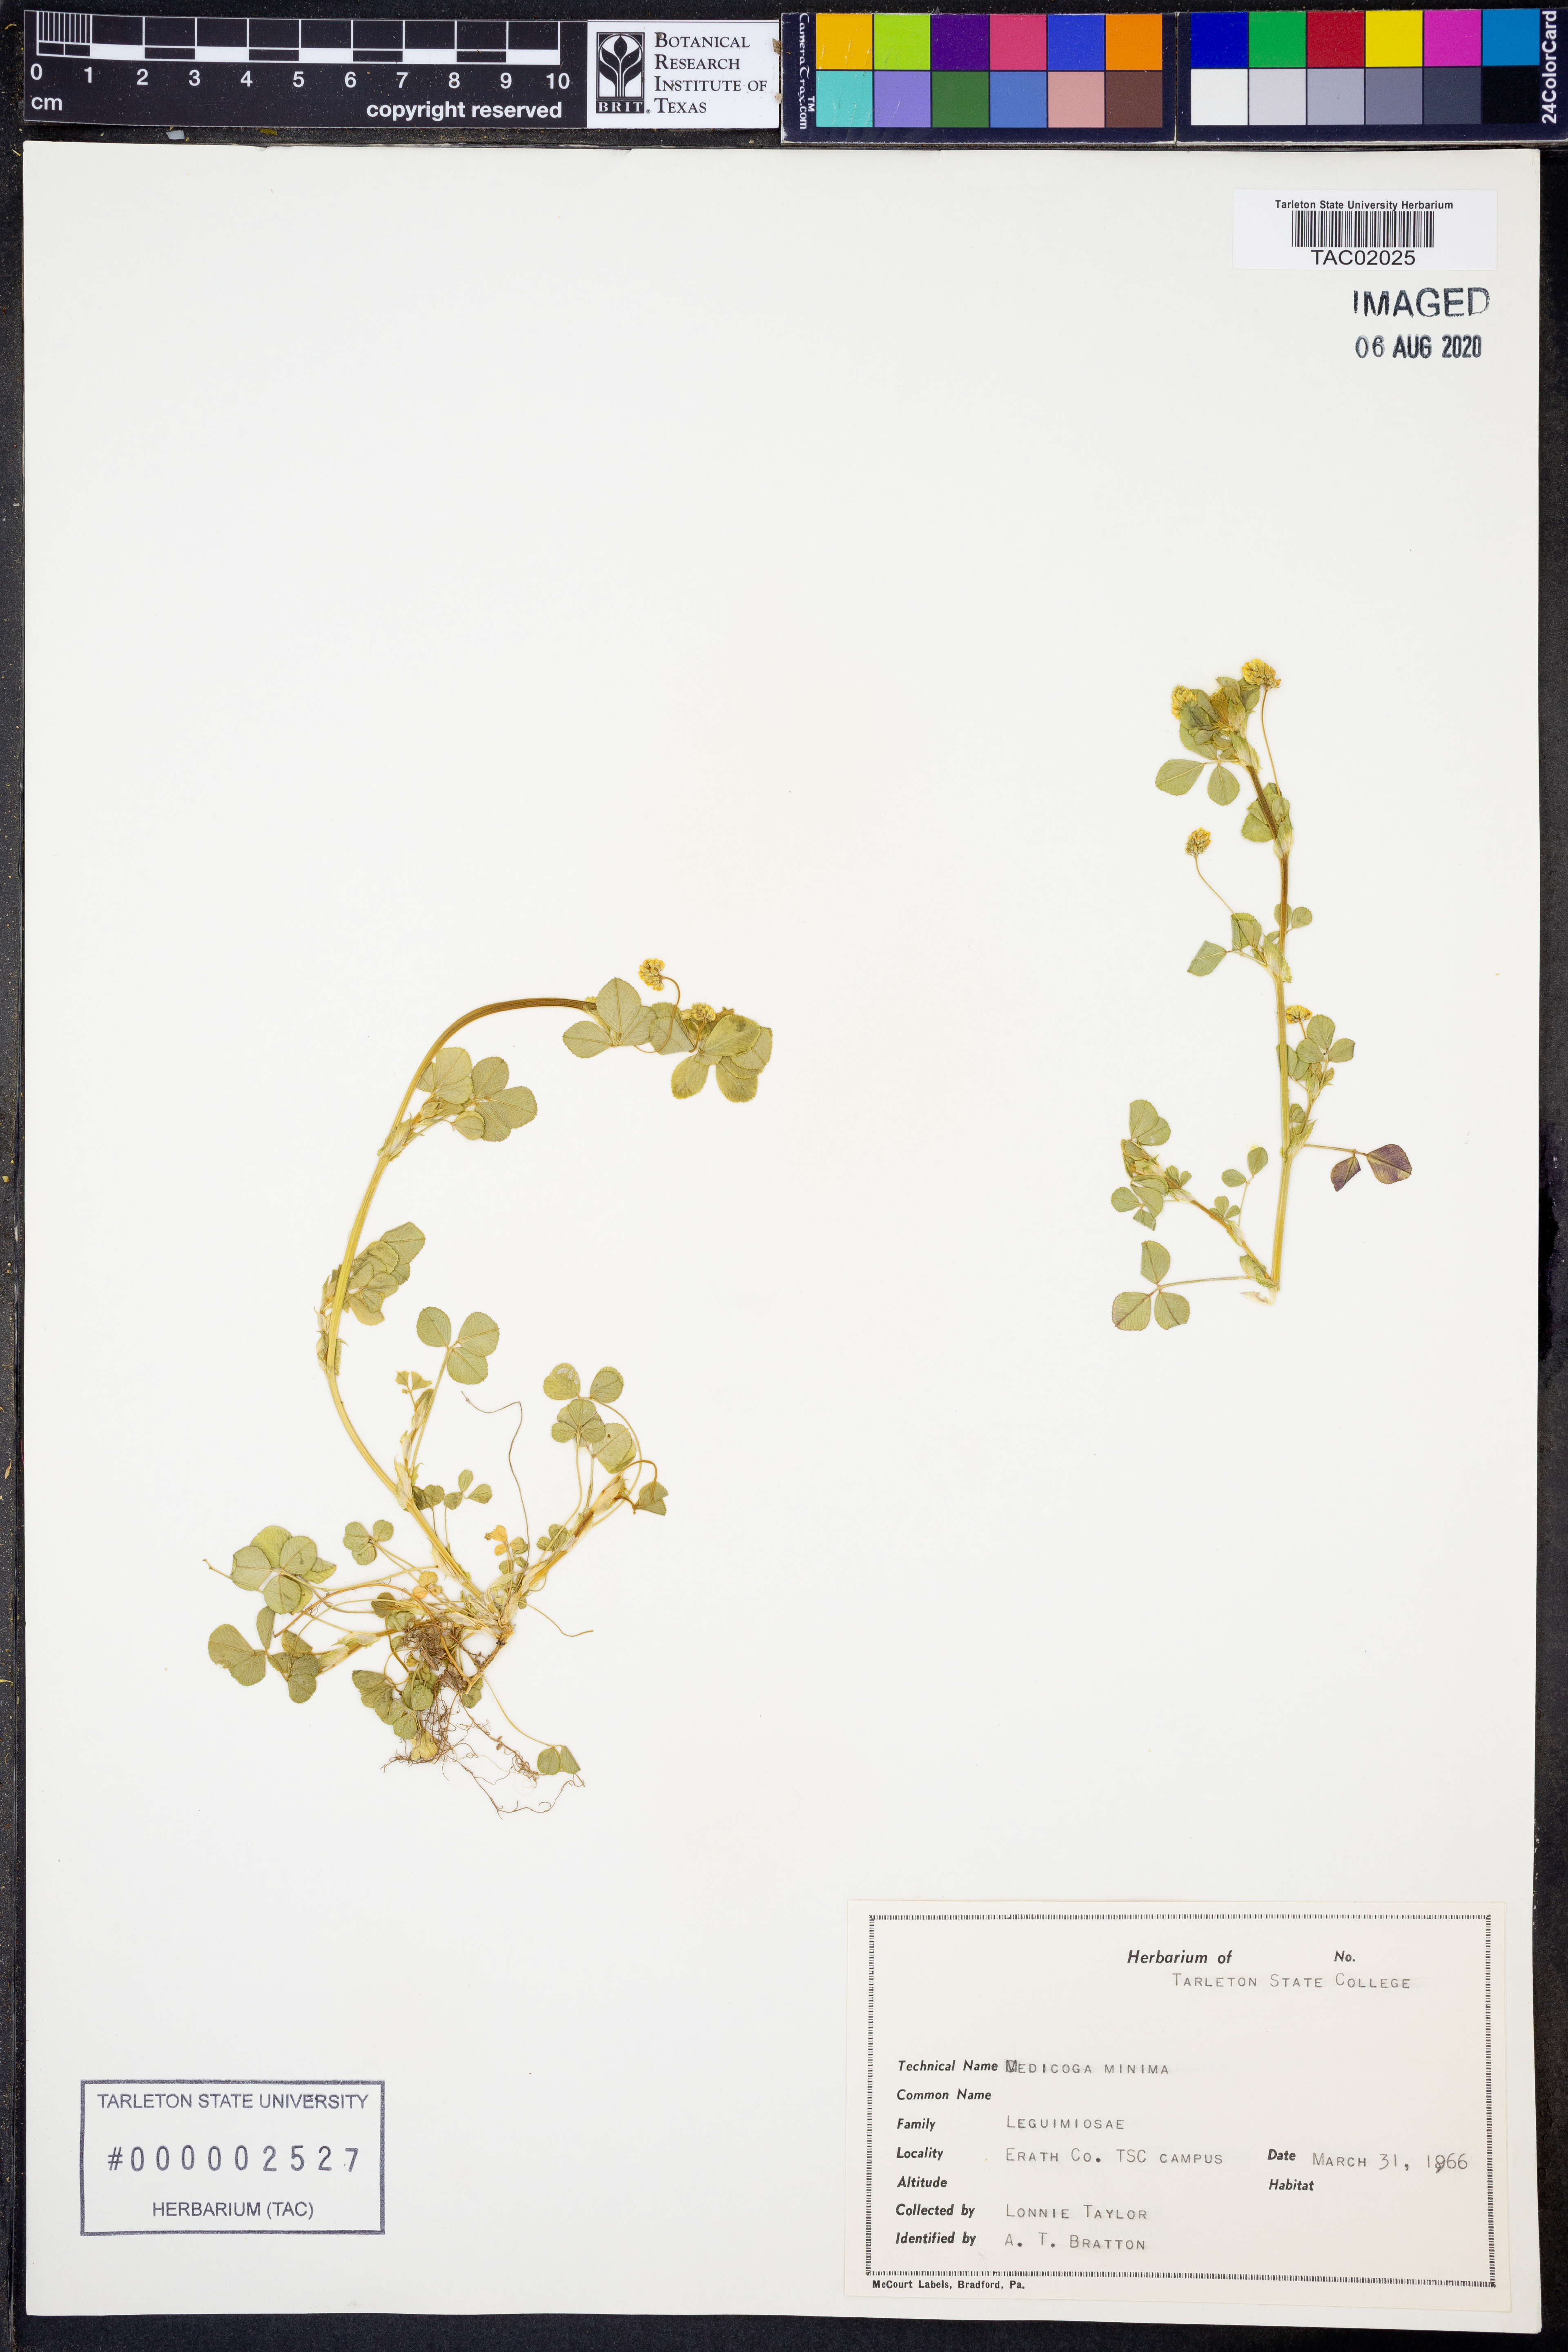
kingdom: Plantae
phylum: Tracheophyta
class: Magnoliopsida
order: Fabales
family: Fabaceae
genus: Medicago
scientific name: Medicago minima
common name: Little bur-clover
